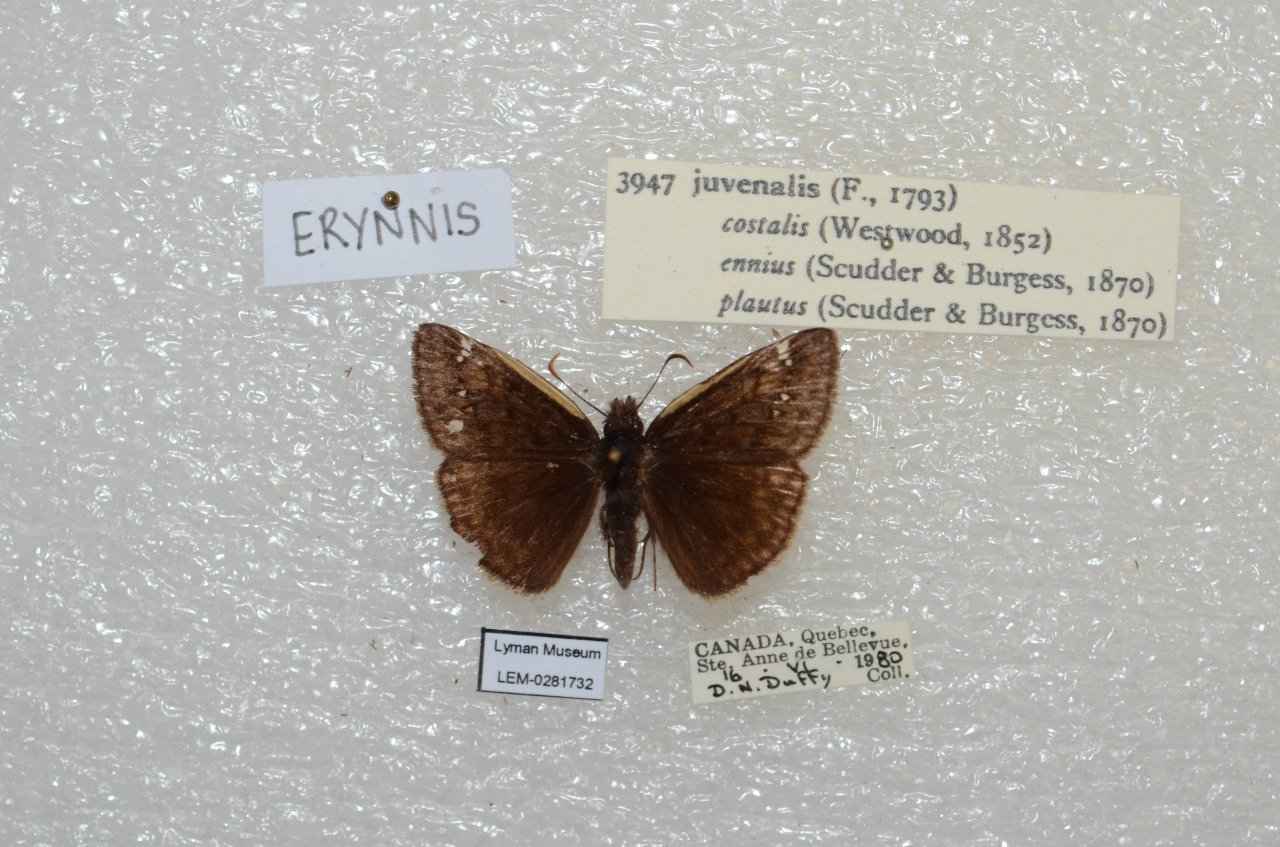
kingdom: Animalia
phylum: Arthropoda
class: Insecta
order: Lepidoptera
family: Hesperiidae
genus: Gesta
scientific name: Gesta
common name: Juvenal's Duskywing
